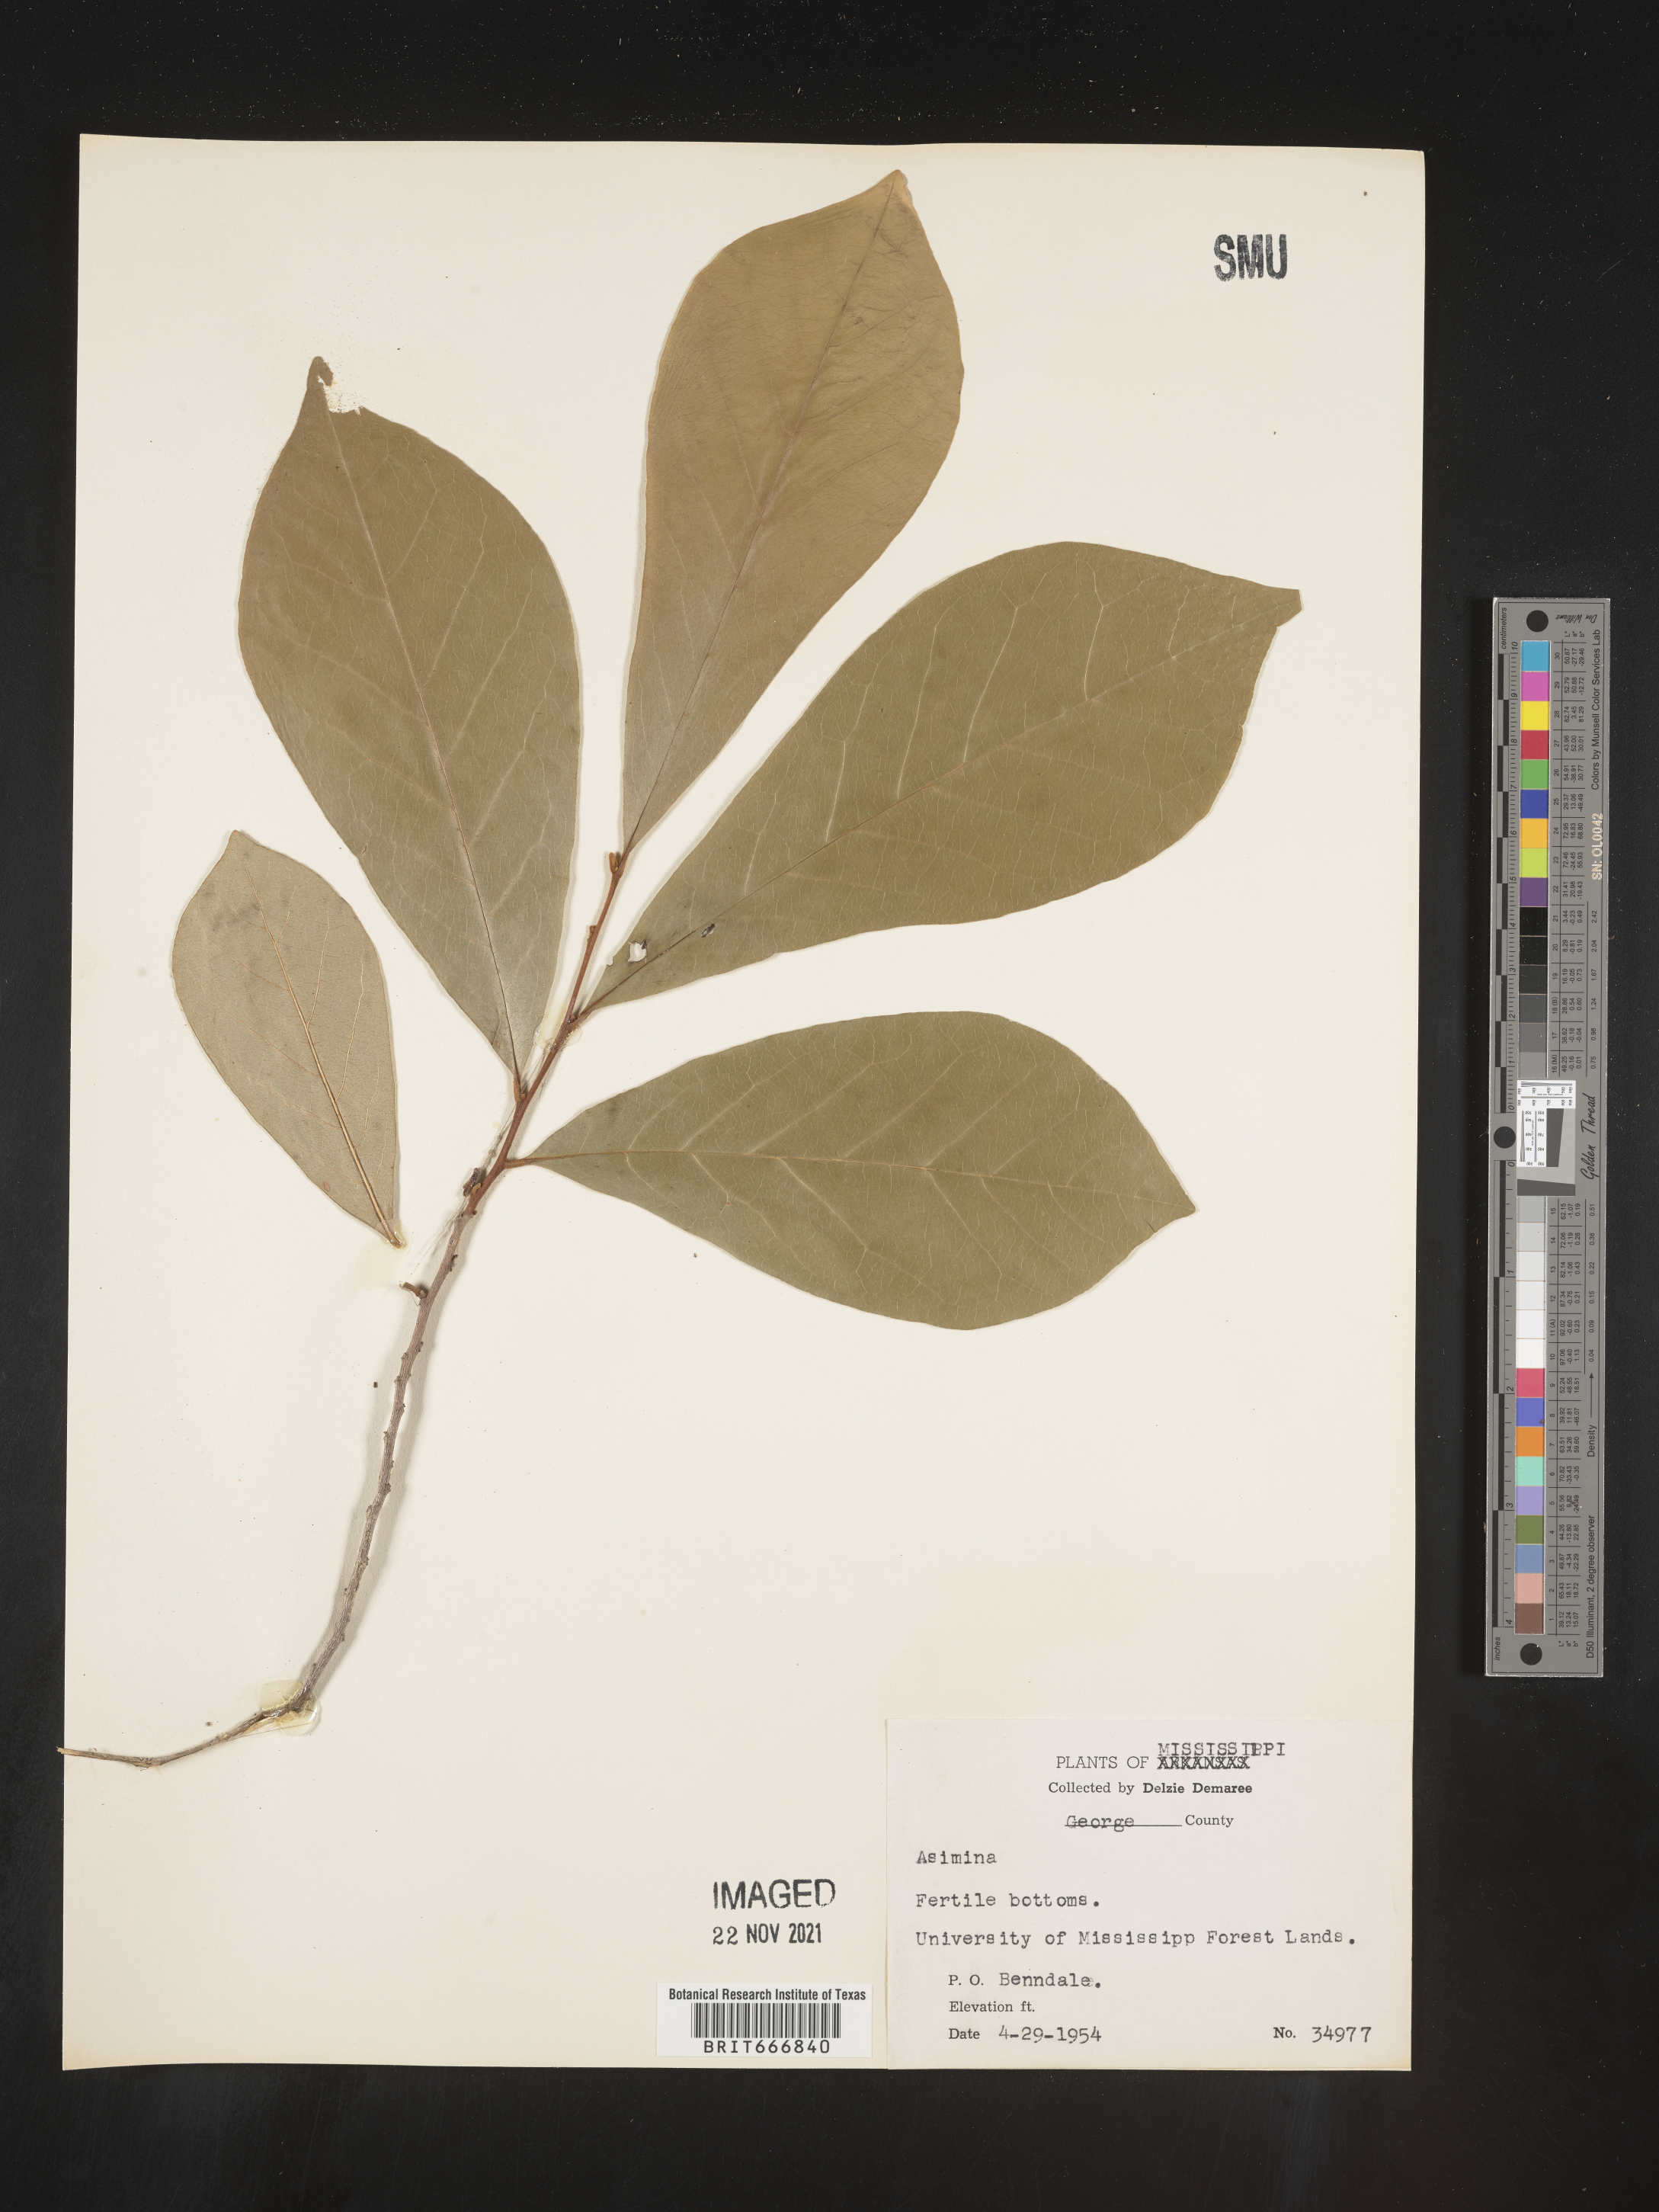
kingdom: Plantae
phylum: Tracheophyta
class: Magnoliopsida
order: Magnoliales
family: Annonaceae
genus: Asimina
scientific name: Asimina triloba
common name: Dog-banana
